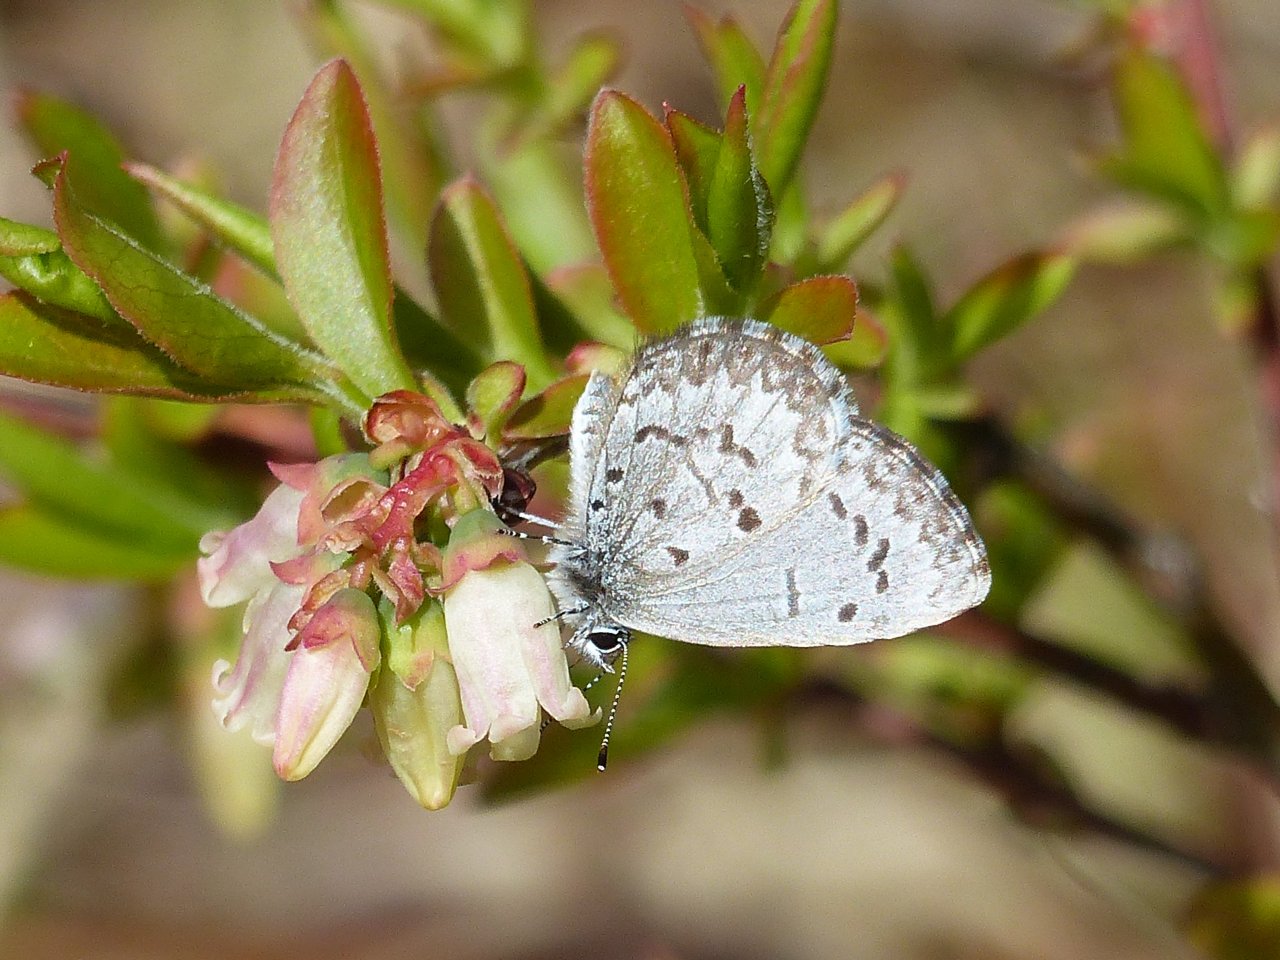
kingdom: Animalia
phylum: Arthropoda
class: Insecta
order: Lepidoptera
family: Lycaenidae
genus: Celastrina
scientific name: Celastrina lucia
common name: Northern Spring Azure
